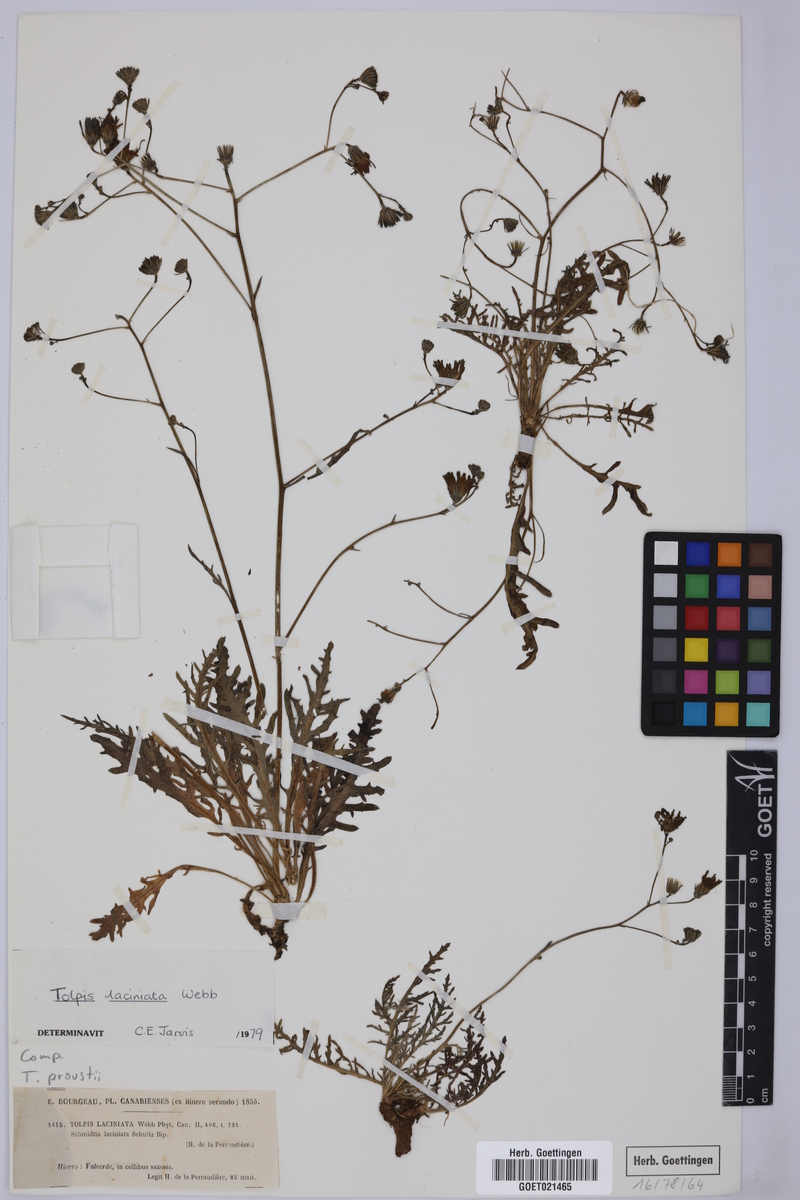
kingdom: Plantae
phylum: Tracheophyta
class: Magnoliopsida
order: Asterales
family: Asteraceae
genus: Tolpis
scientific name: Tolpis laciniata
